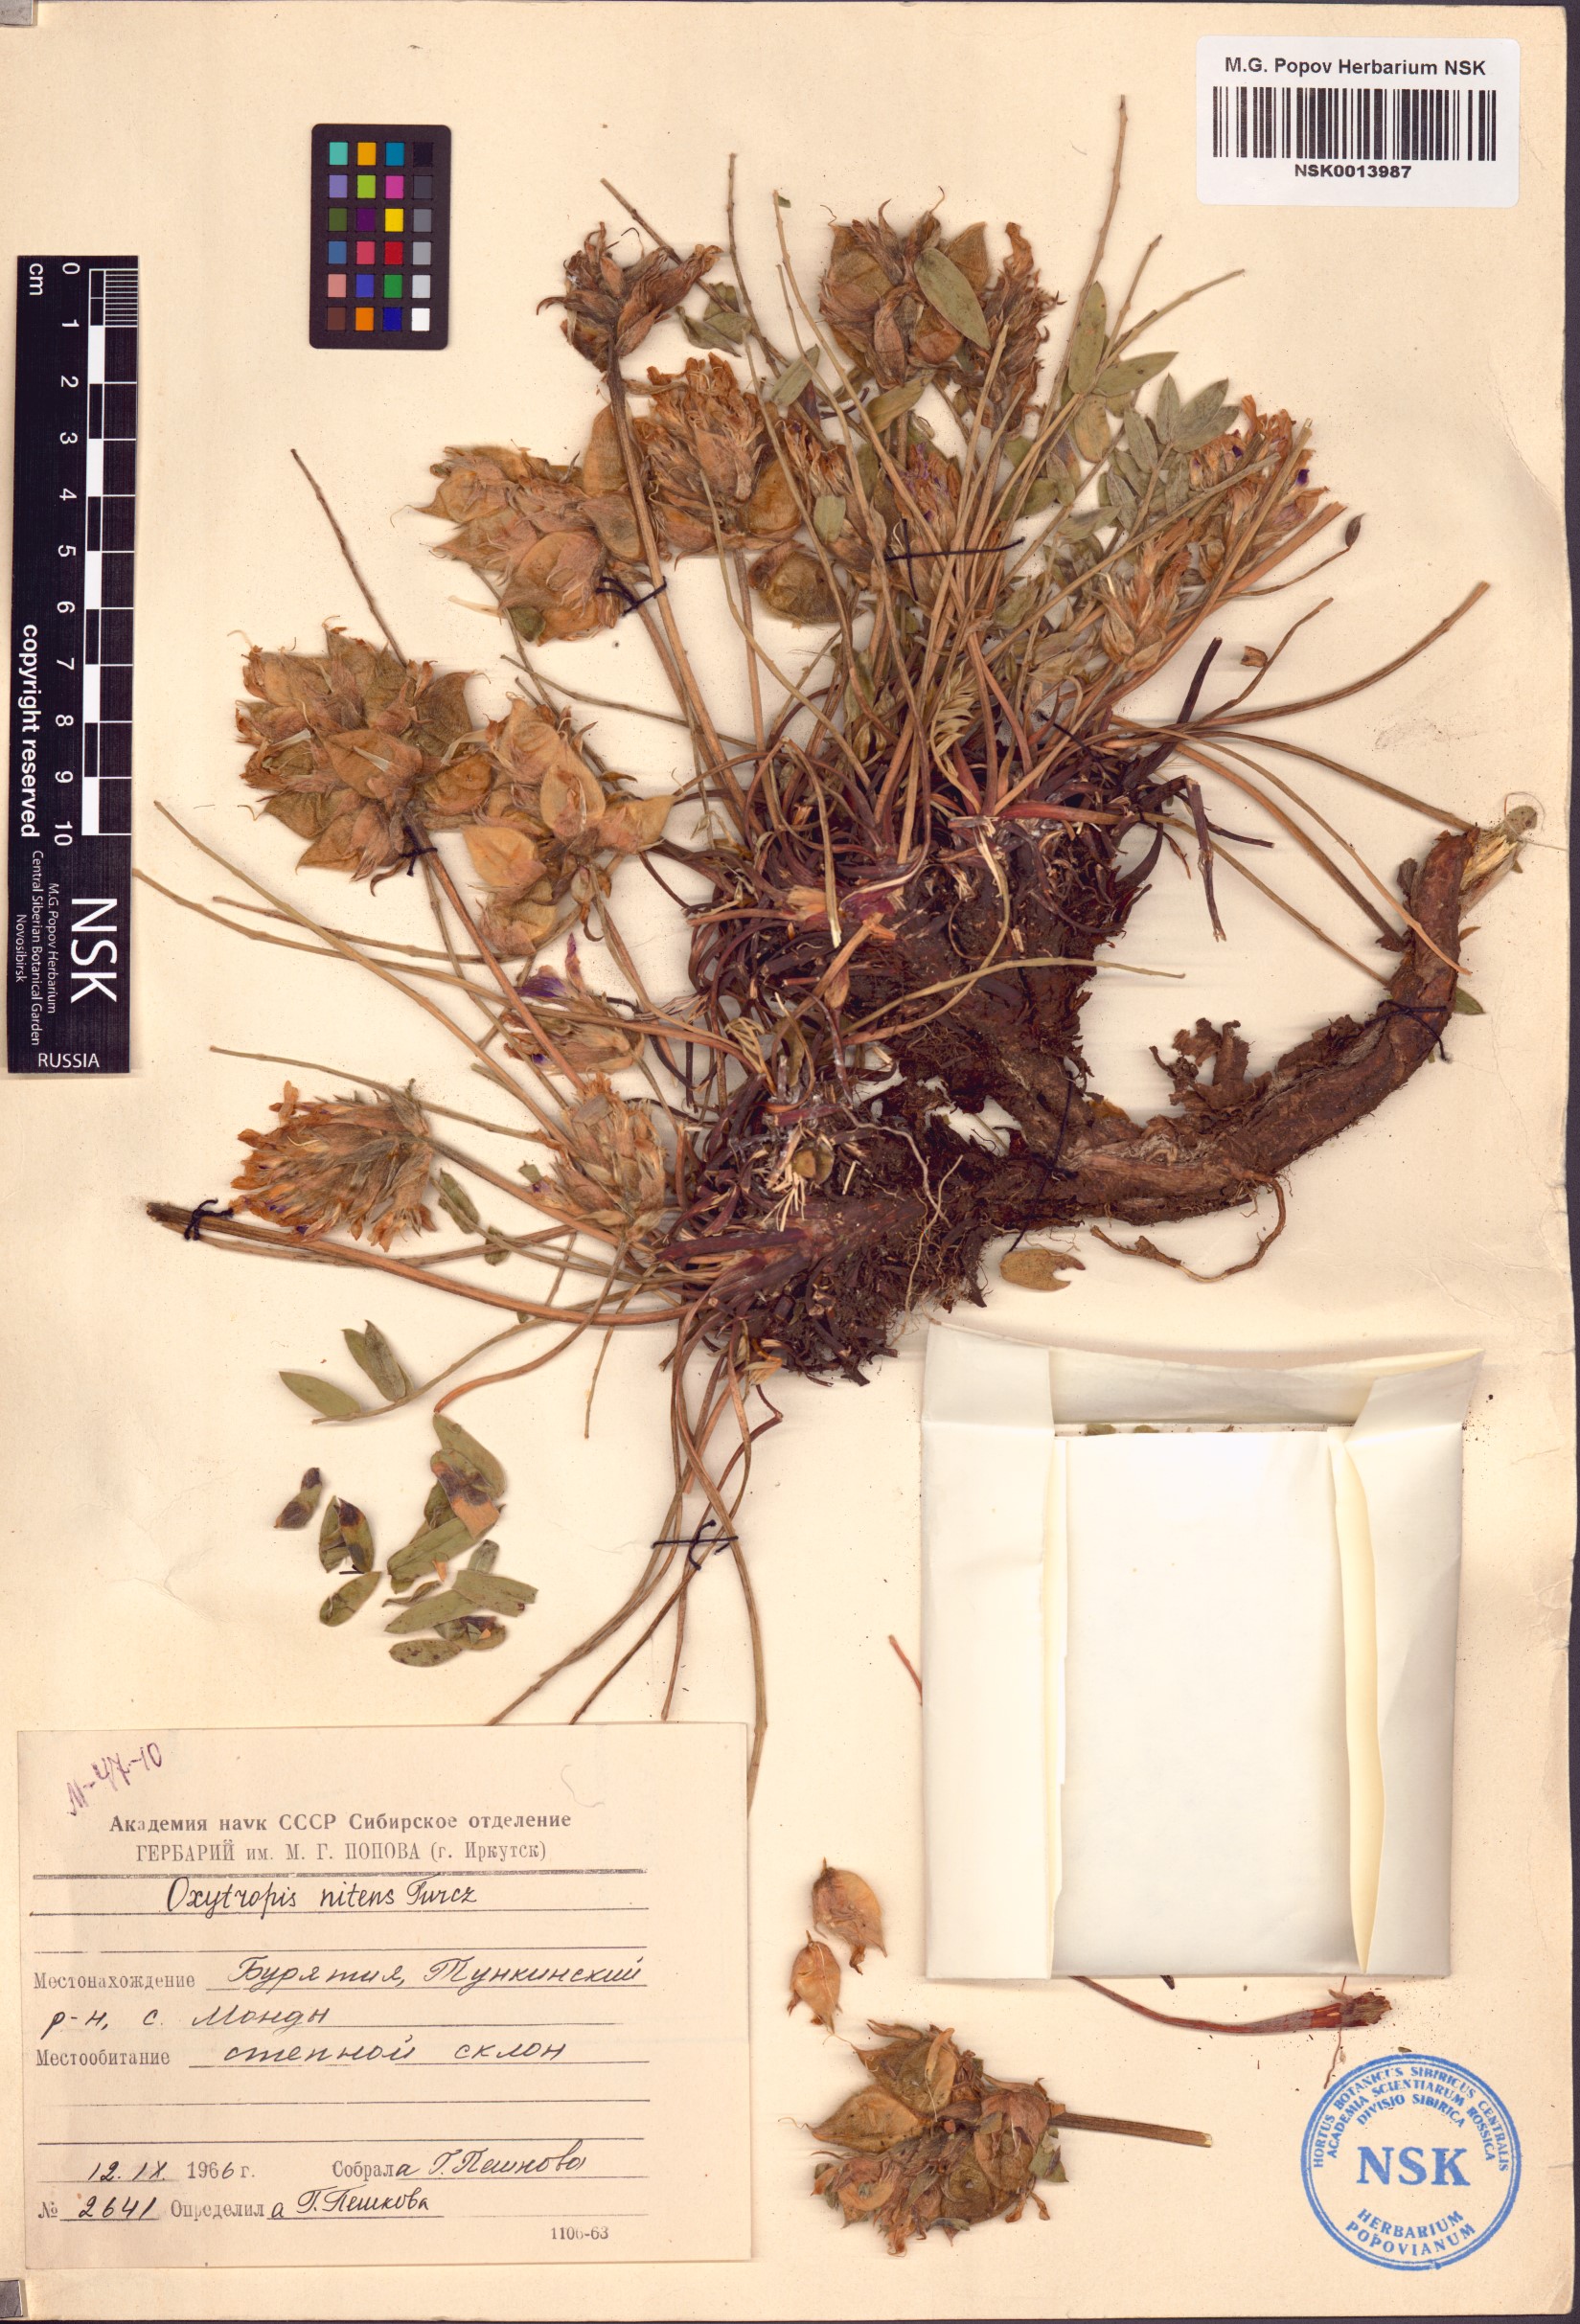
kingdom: Plantae
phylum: Tracheophyta
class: Magnoliopsida
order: Fabales
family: Fabaceae
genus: Oxytropis
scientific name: Oxytropis nitens
